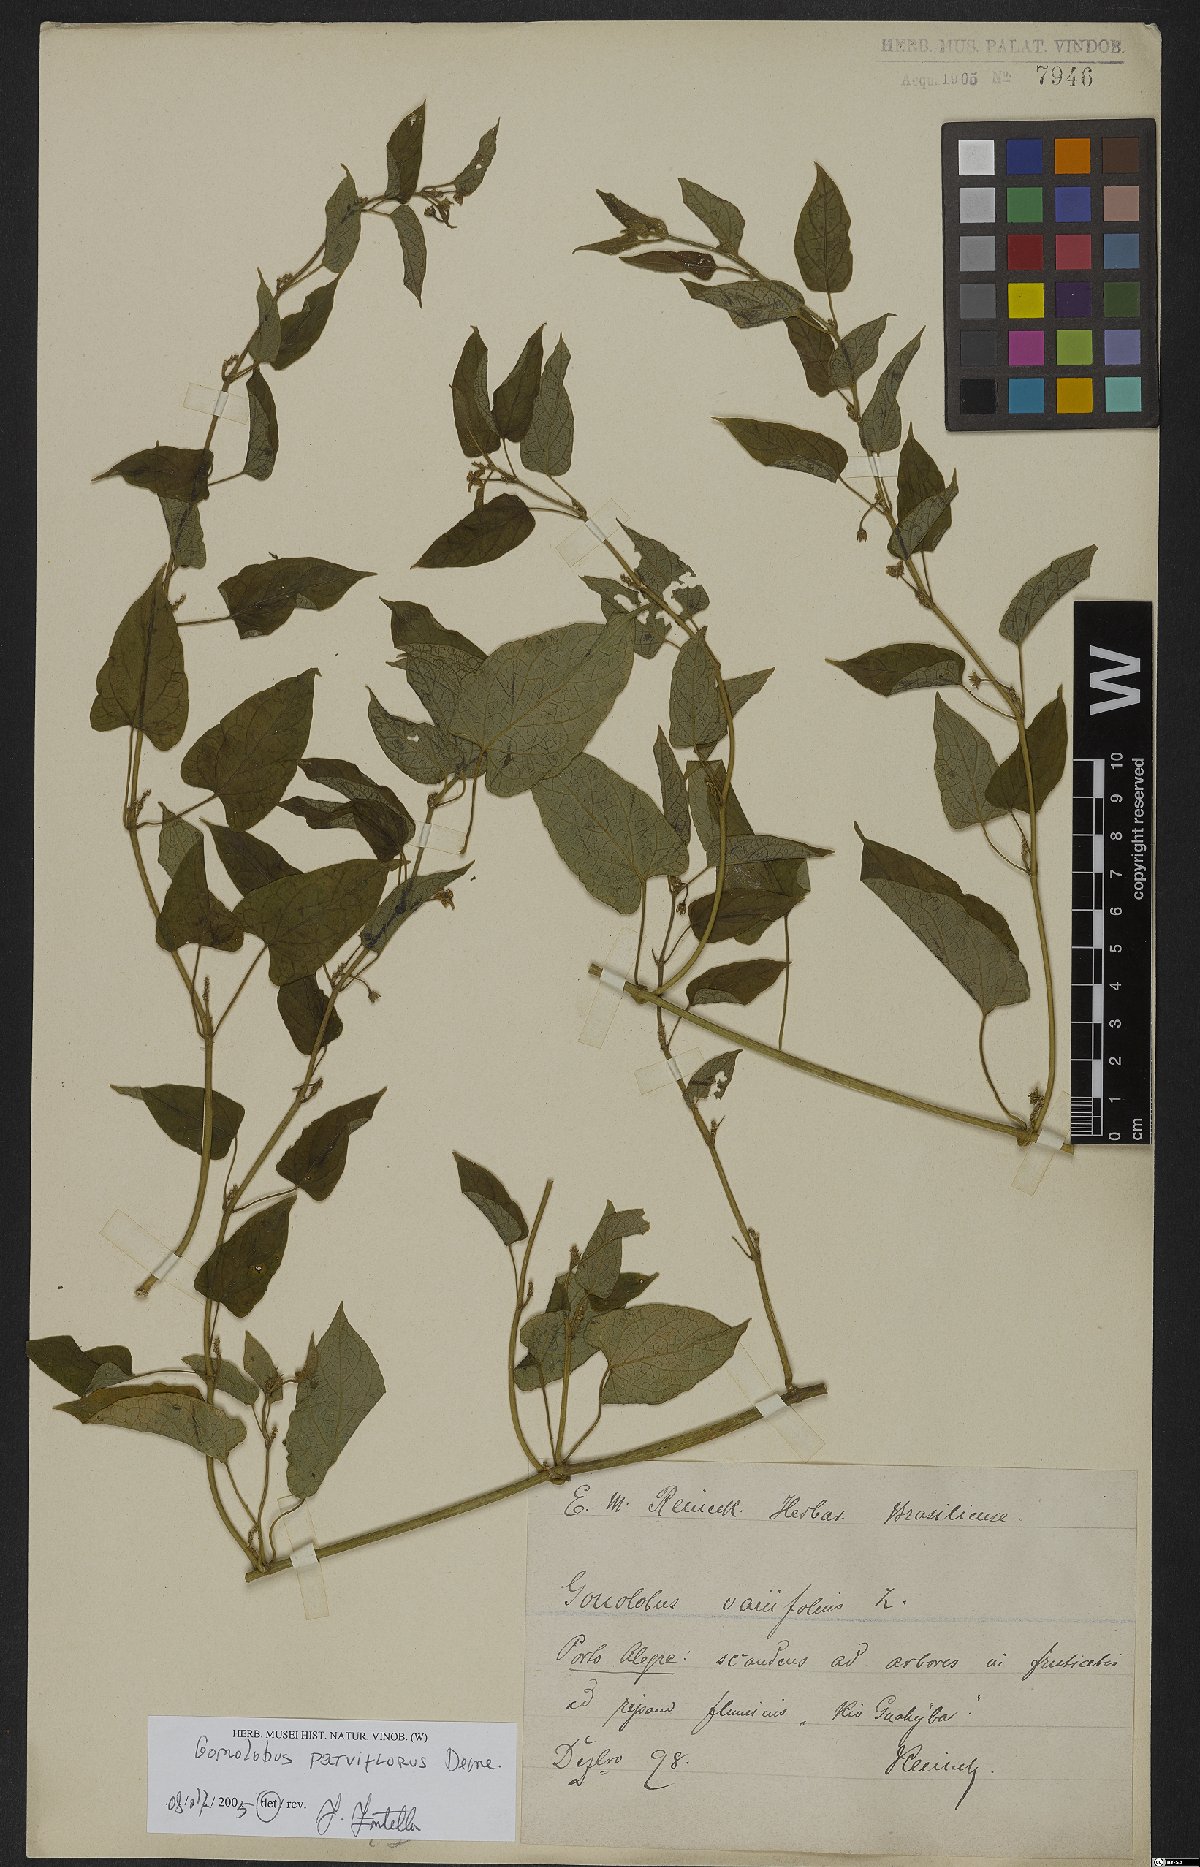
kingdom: Plantae
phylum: Tracheophyta
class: Magnoliopsida
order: Gentianales
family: Apocynaceae
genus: Gonolobus
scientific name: Gonolobus parviflorus
